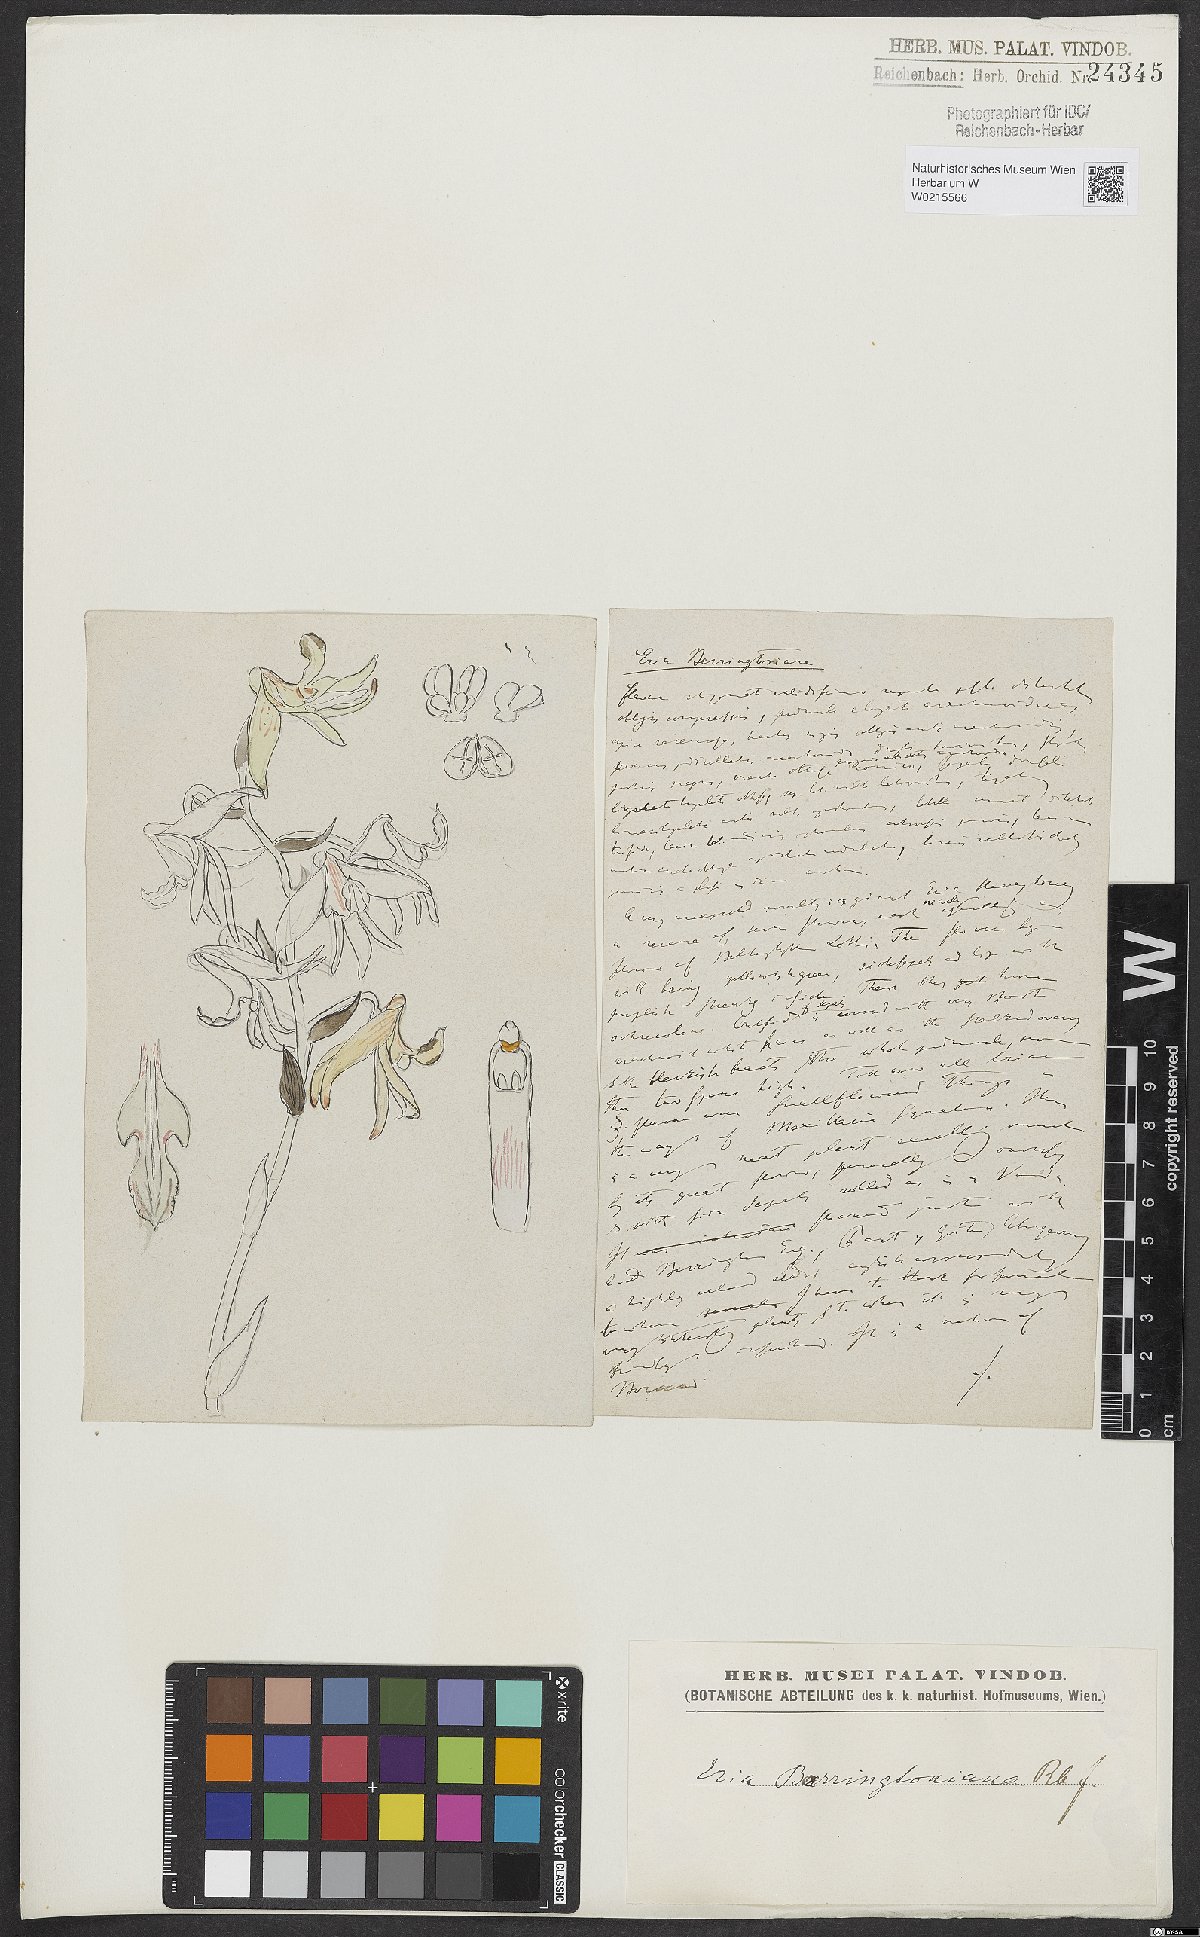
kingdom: Plantae
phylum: Tracheophyta
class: Liliopsida
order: Asparagales
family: Orchidaceae
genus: Eria
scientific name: Eria berringtoniana
